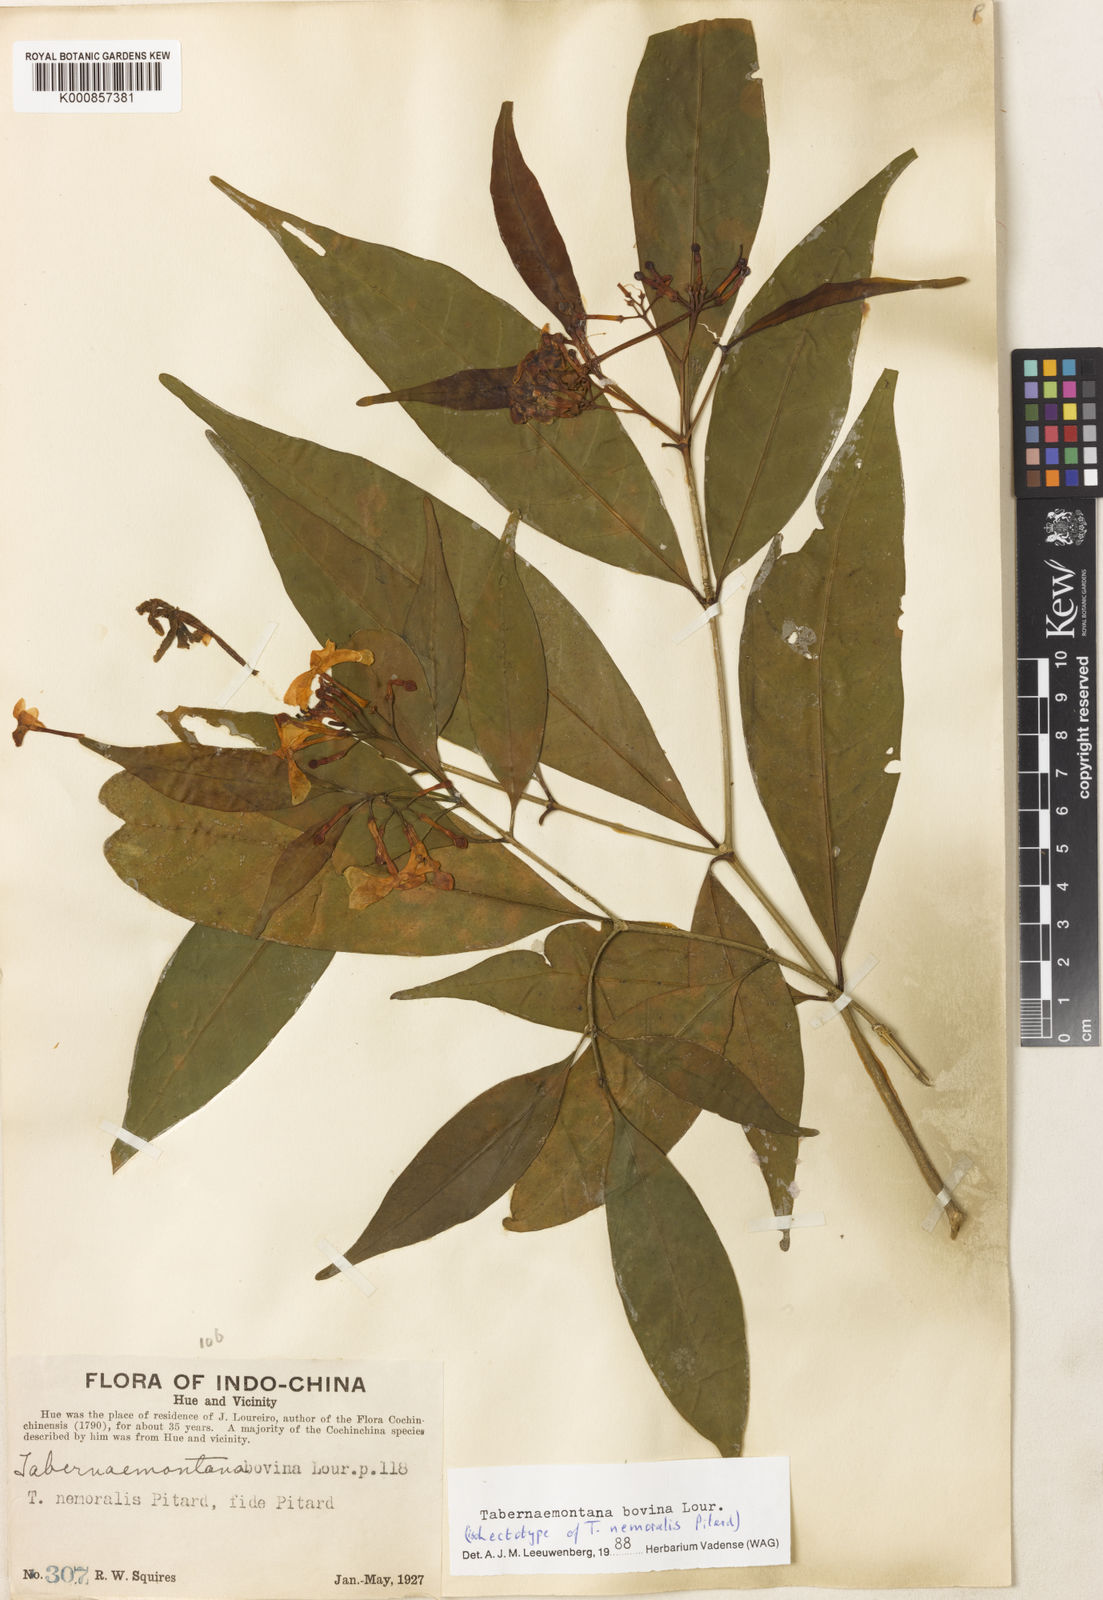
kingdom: Plantae
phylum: Tracheophyta
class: Magnoliopsida
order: Gentianales
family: Apocynaceae
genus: Tabernaemontana
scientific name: Tabernaemontana bovina
